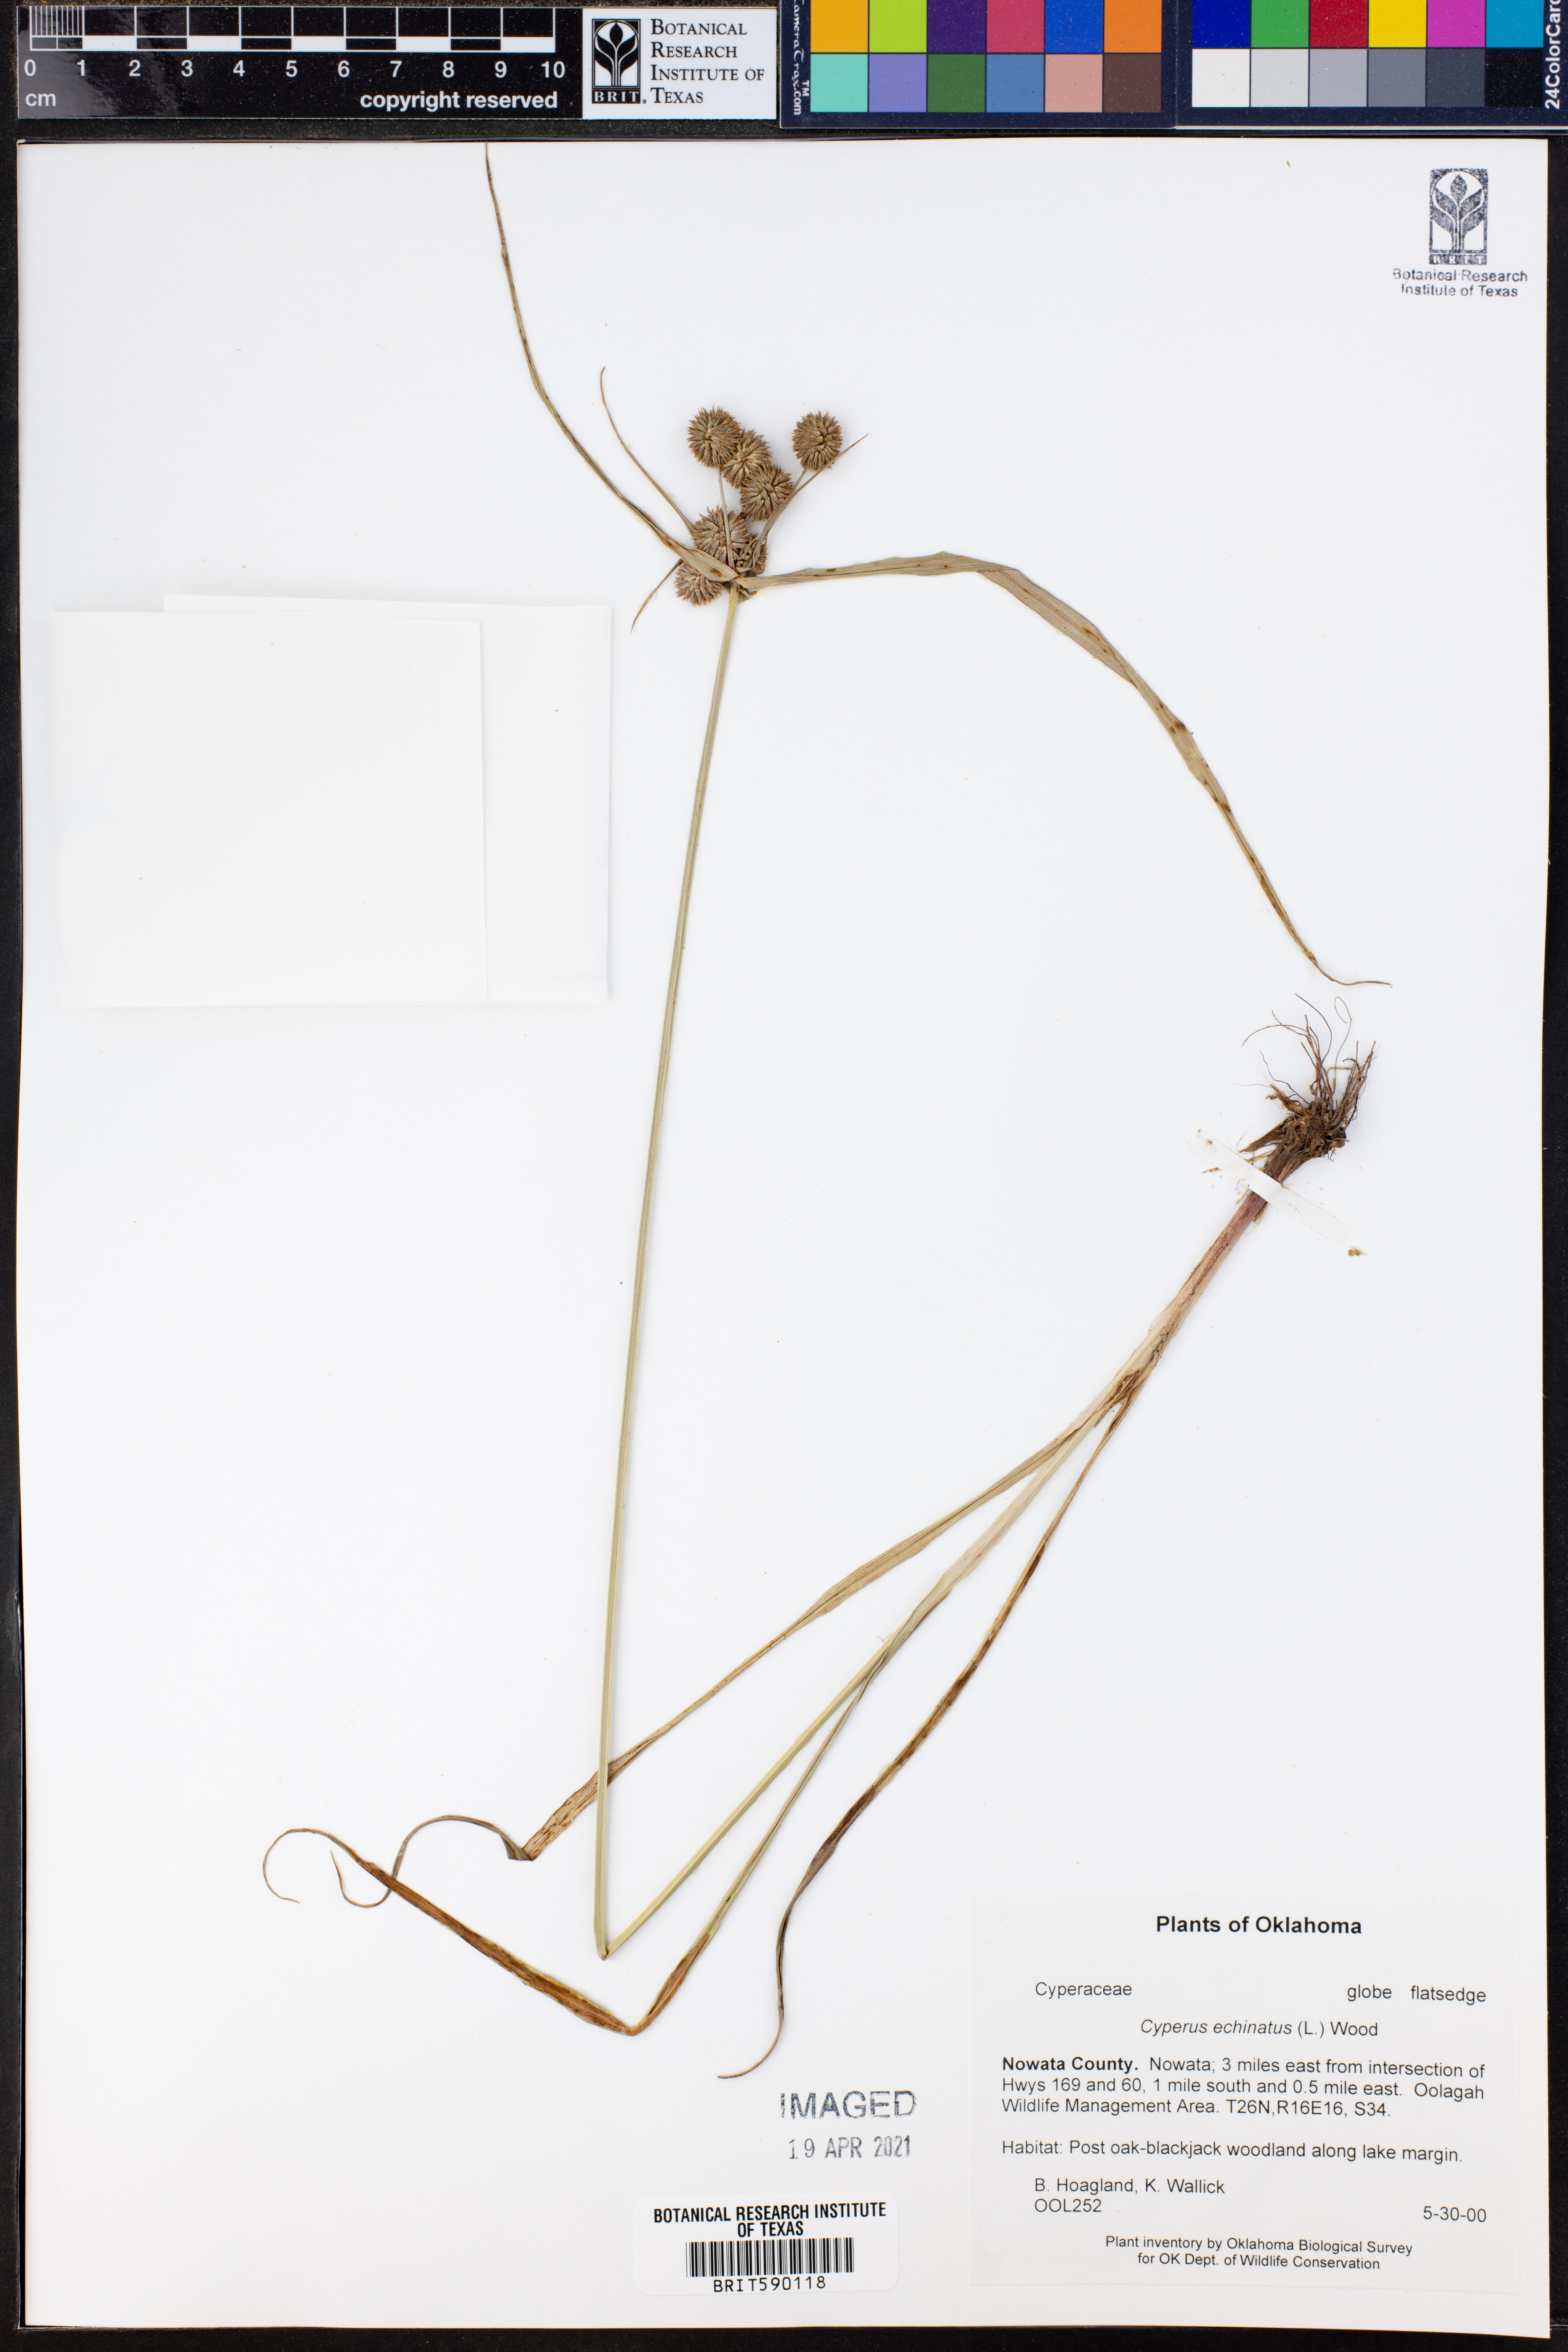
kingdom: Plantae
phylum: Tracheophyta
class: Liliopsida
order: Poales
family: Cyperaceae
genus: Cyperus
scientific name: Cyperus echinatus
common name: Teasel sedge
